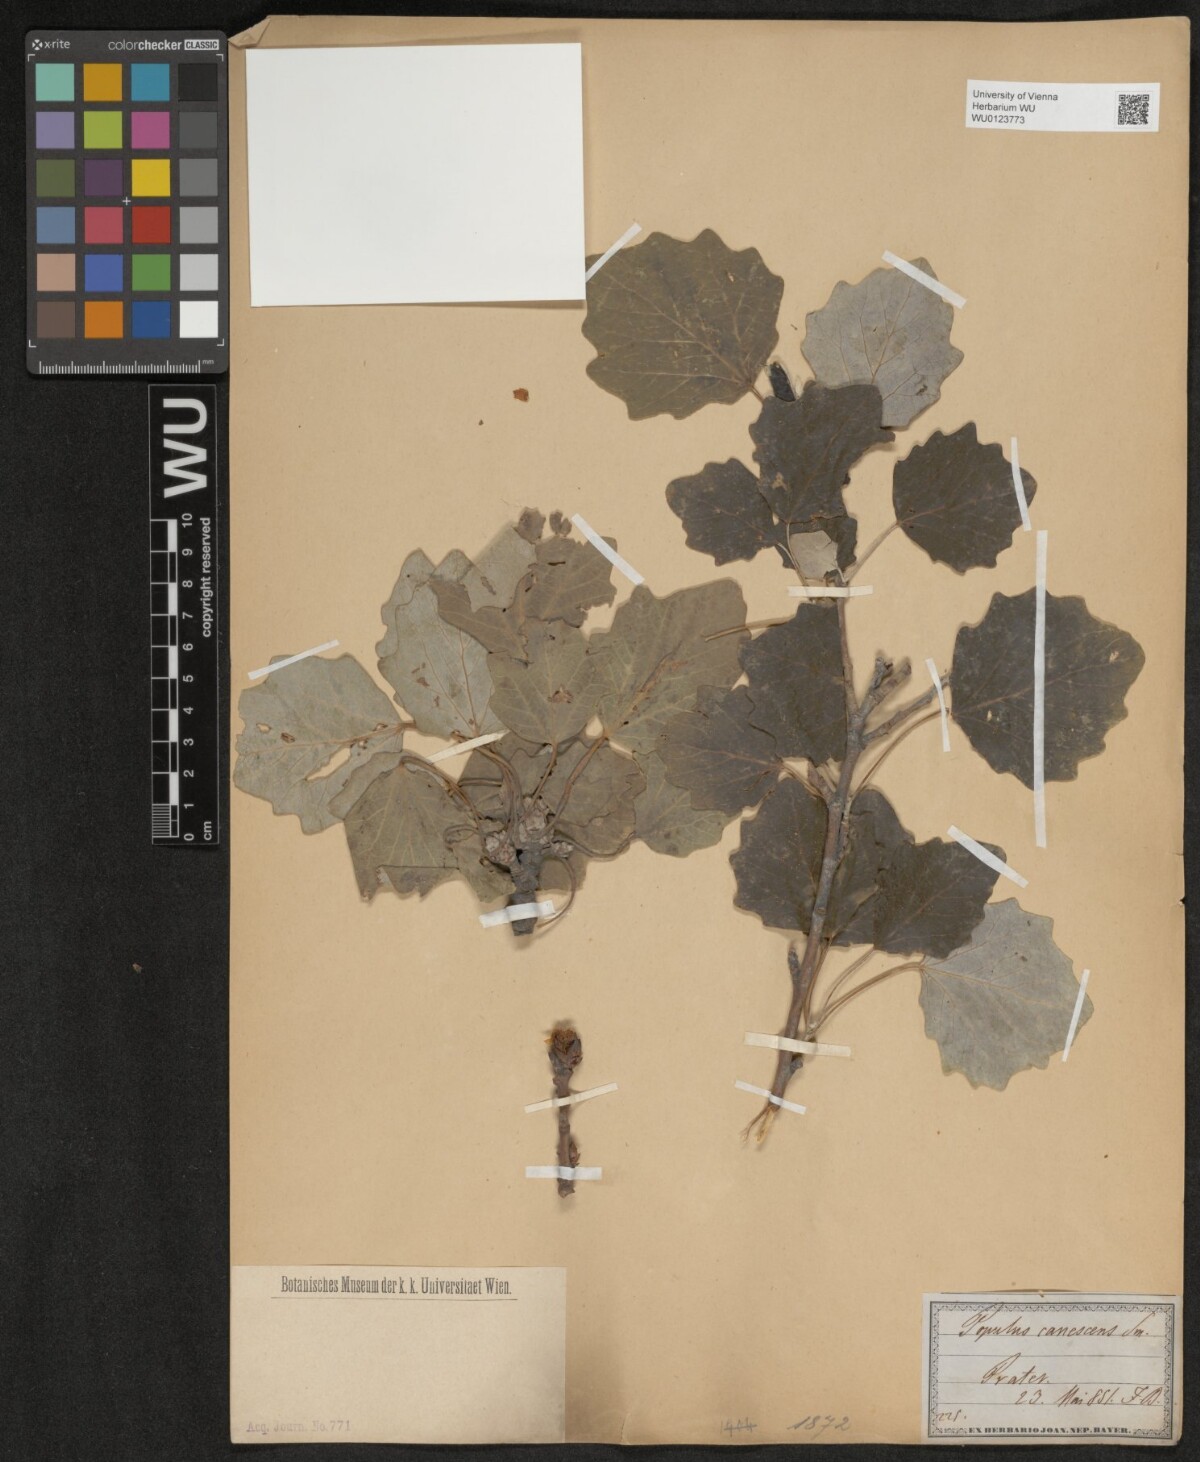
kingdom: Plantae
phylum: Tracheophyta
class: Magnoliopsida
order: Malpighiales
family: Salicaceae
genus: Populus
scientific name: Populus alba
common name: White poplar
